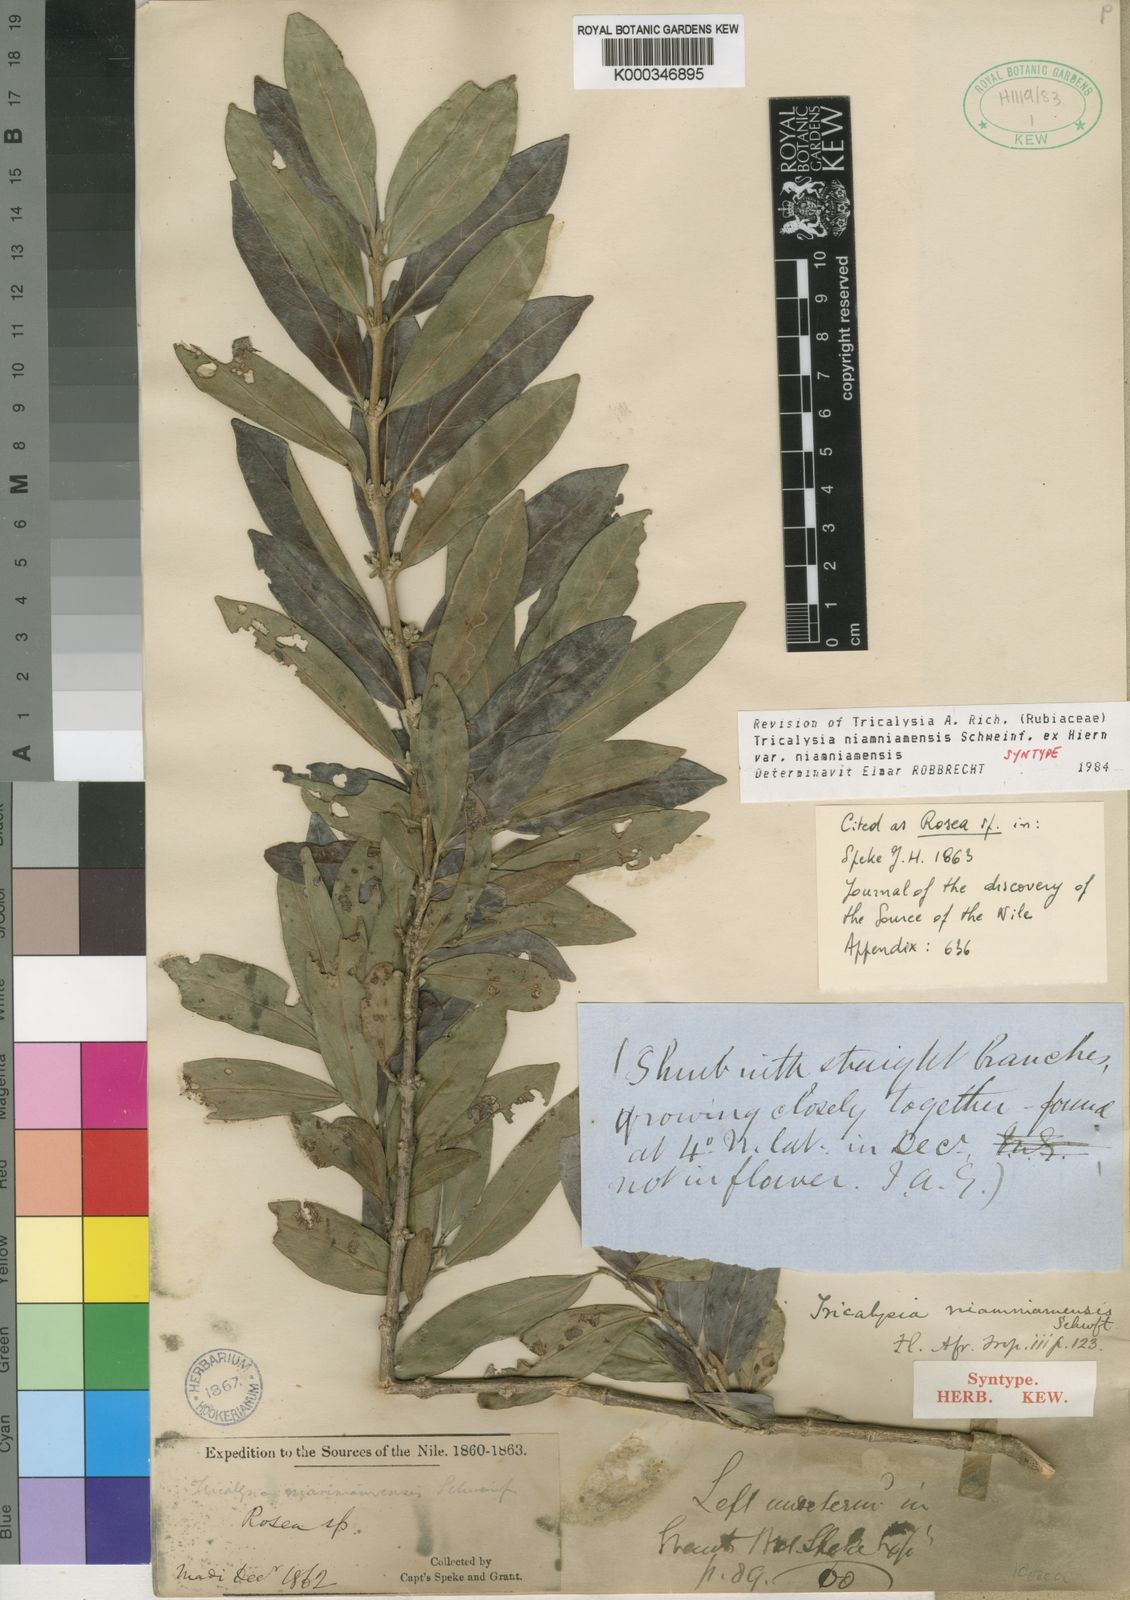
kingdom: Plantae
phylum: Tracheophyta
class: Magnoliopsida
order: Gentianales
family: Rubiaceae
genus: Tricalysia
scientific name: Tricalysia niamniamensis
